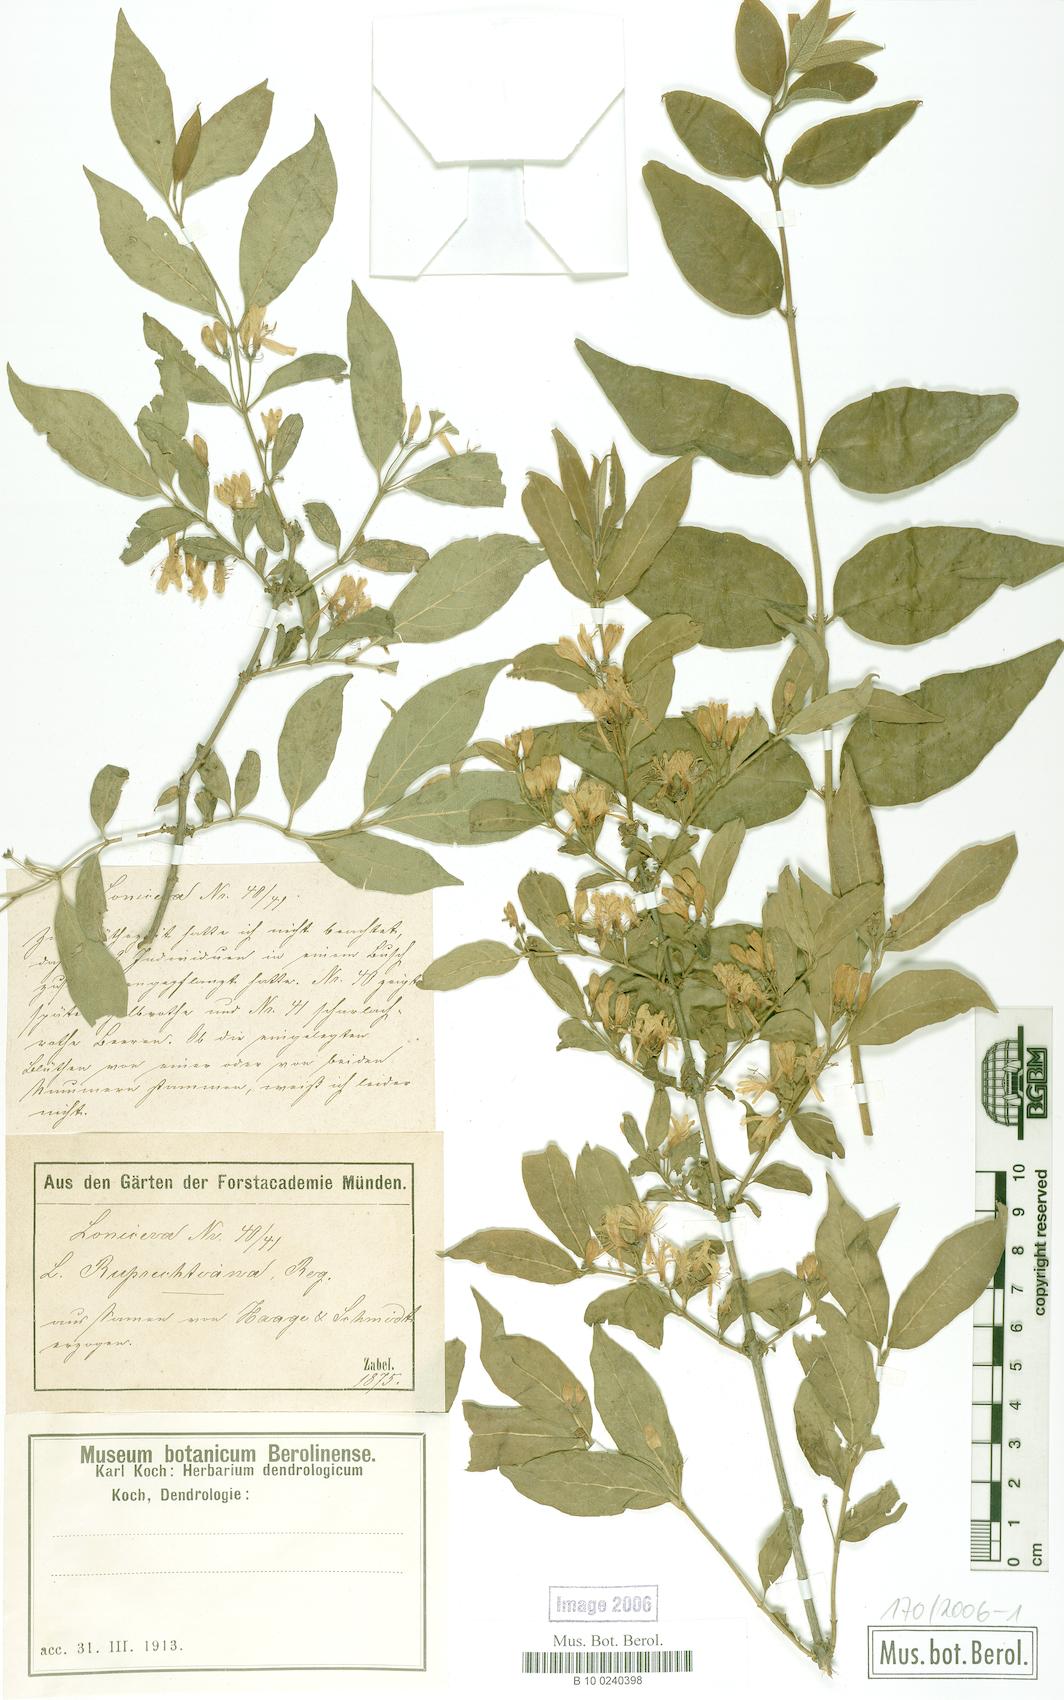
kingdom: Plantae
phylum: Tracheophyta
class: Magnoliopsida
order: Dipsacales
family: Caprifoliaceae
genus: Lonicera
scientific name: Lonicera ruprechtiana
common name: Manchurian honeysuckle
